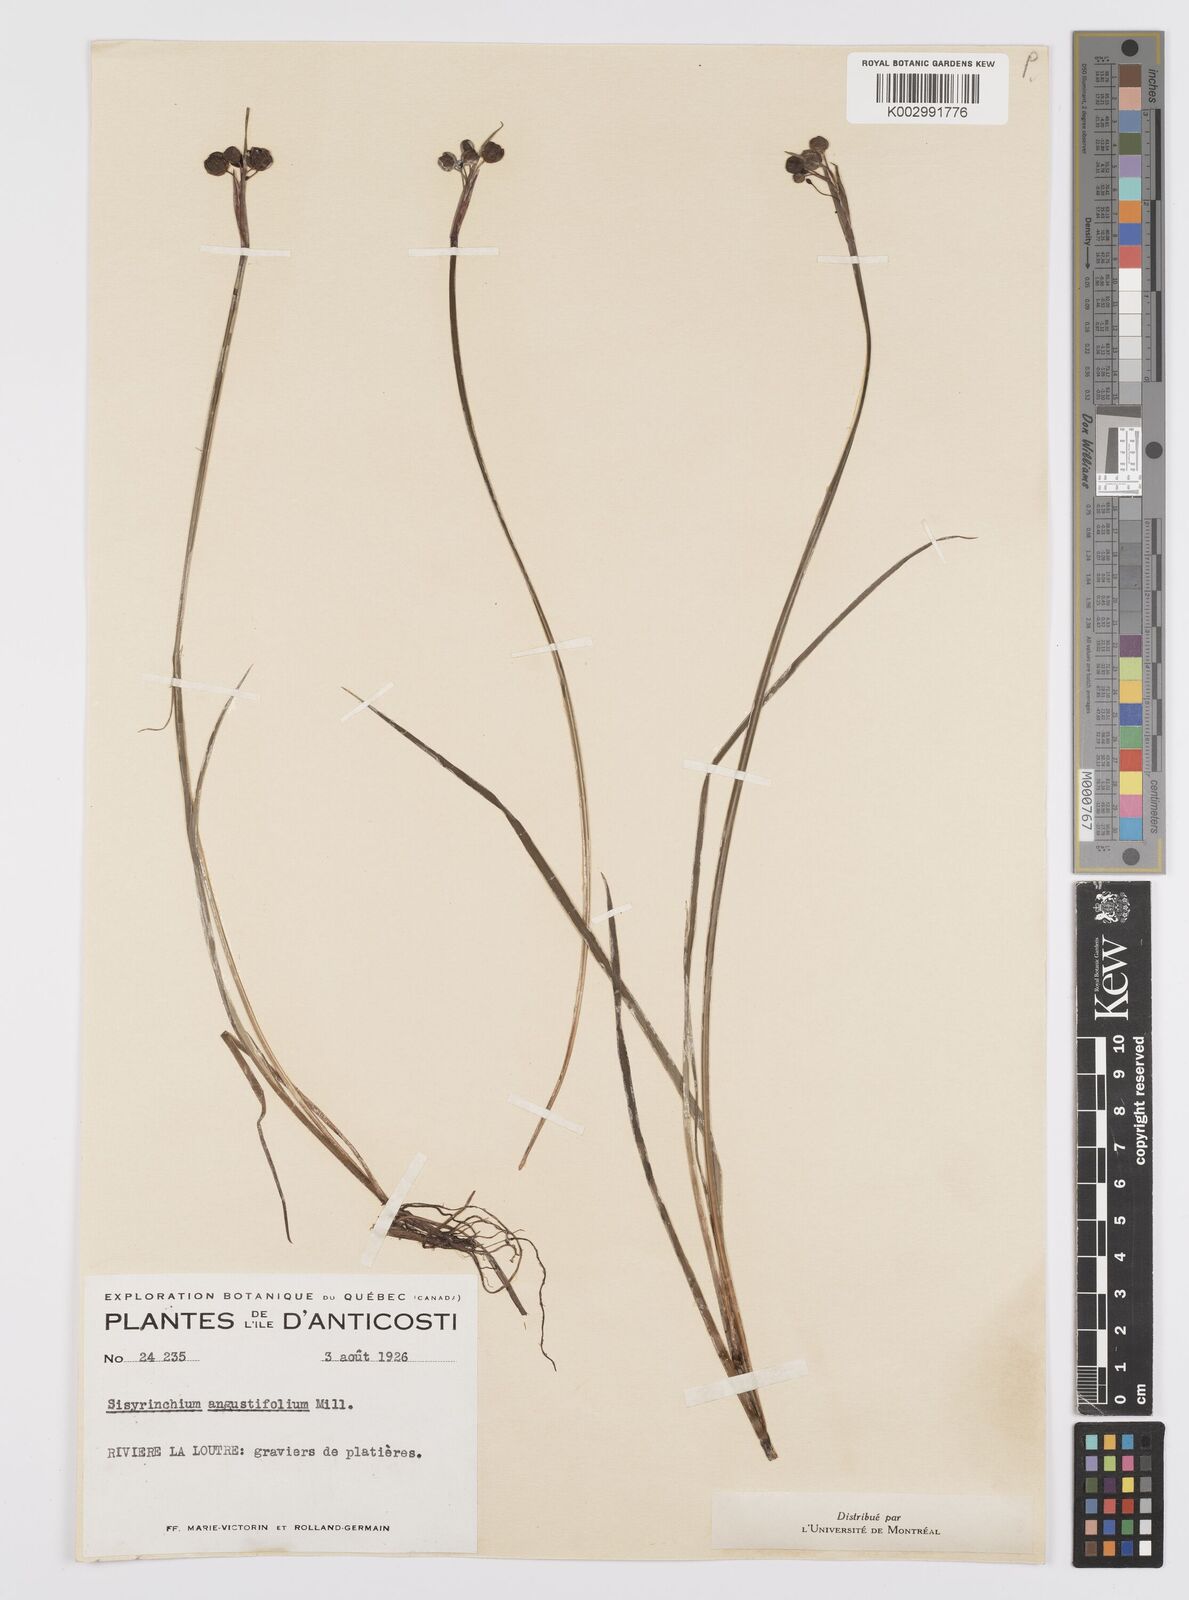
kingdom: Plantae
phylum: Tracheophyta
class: Liliopsida
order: Asparagales
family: Iridaceae
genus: Sisyrinchium
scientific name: Sisyrinchium bermudiana
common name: Blue-eyed-grass
